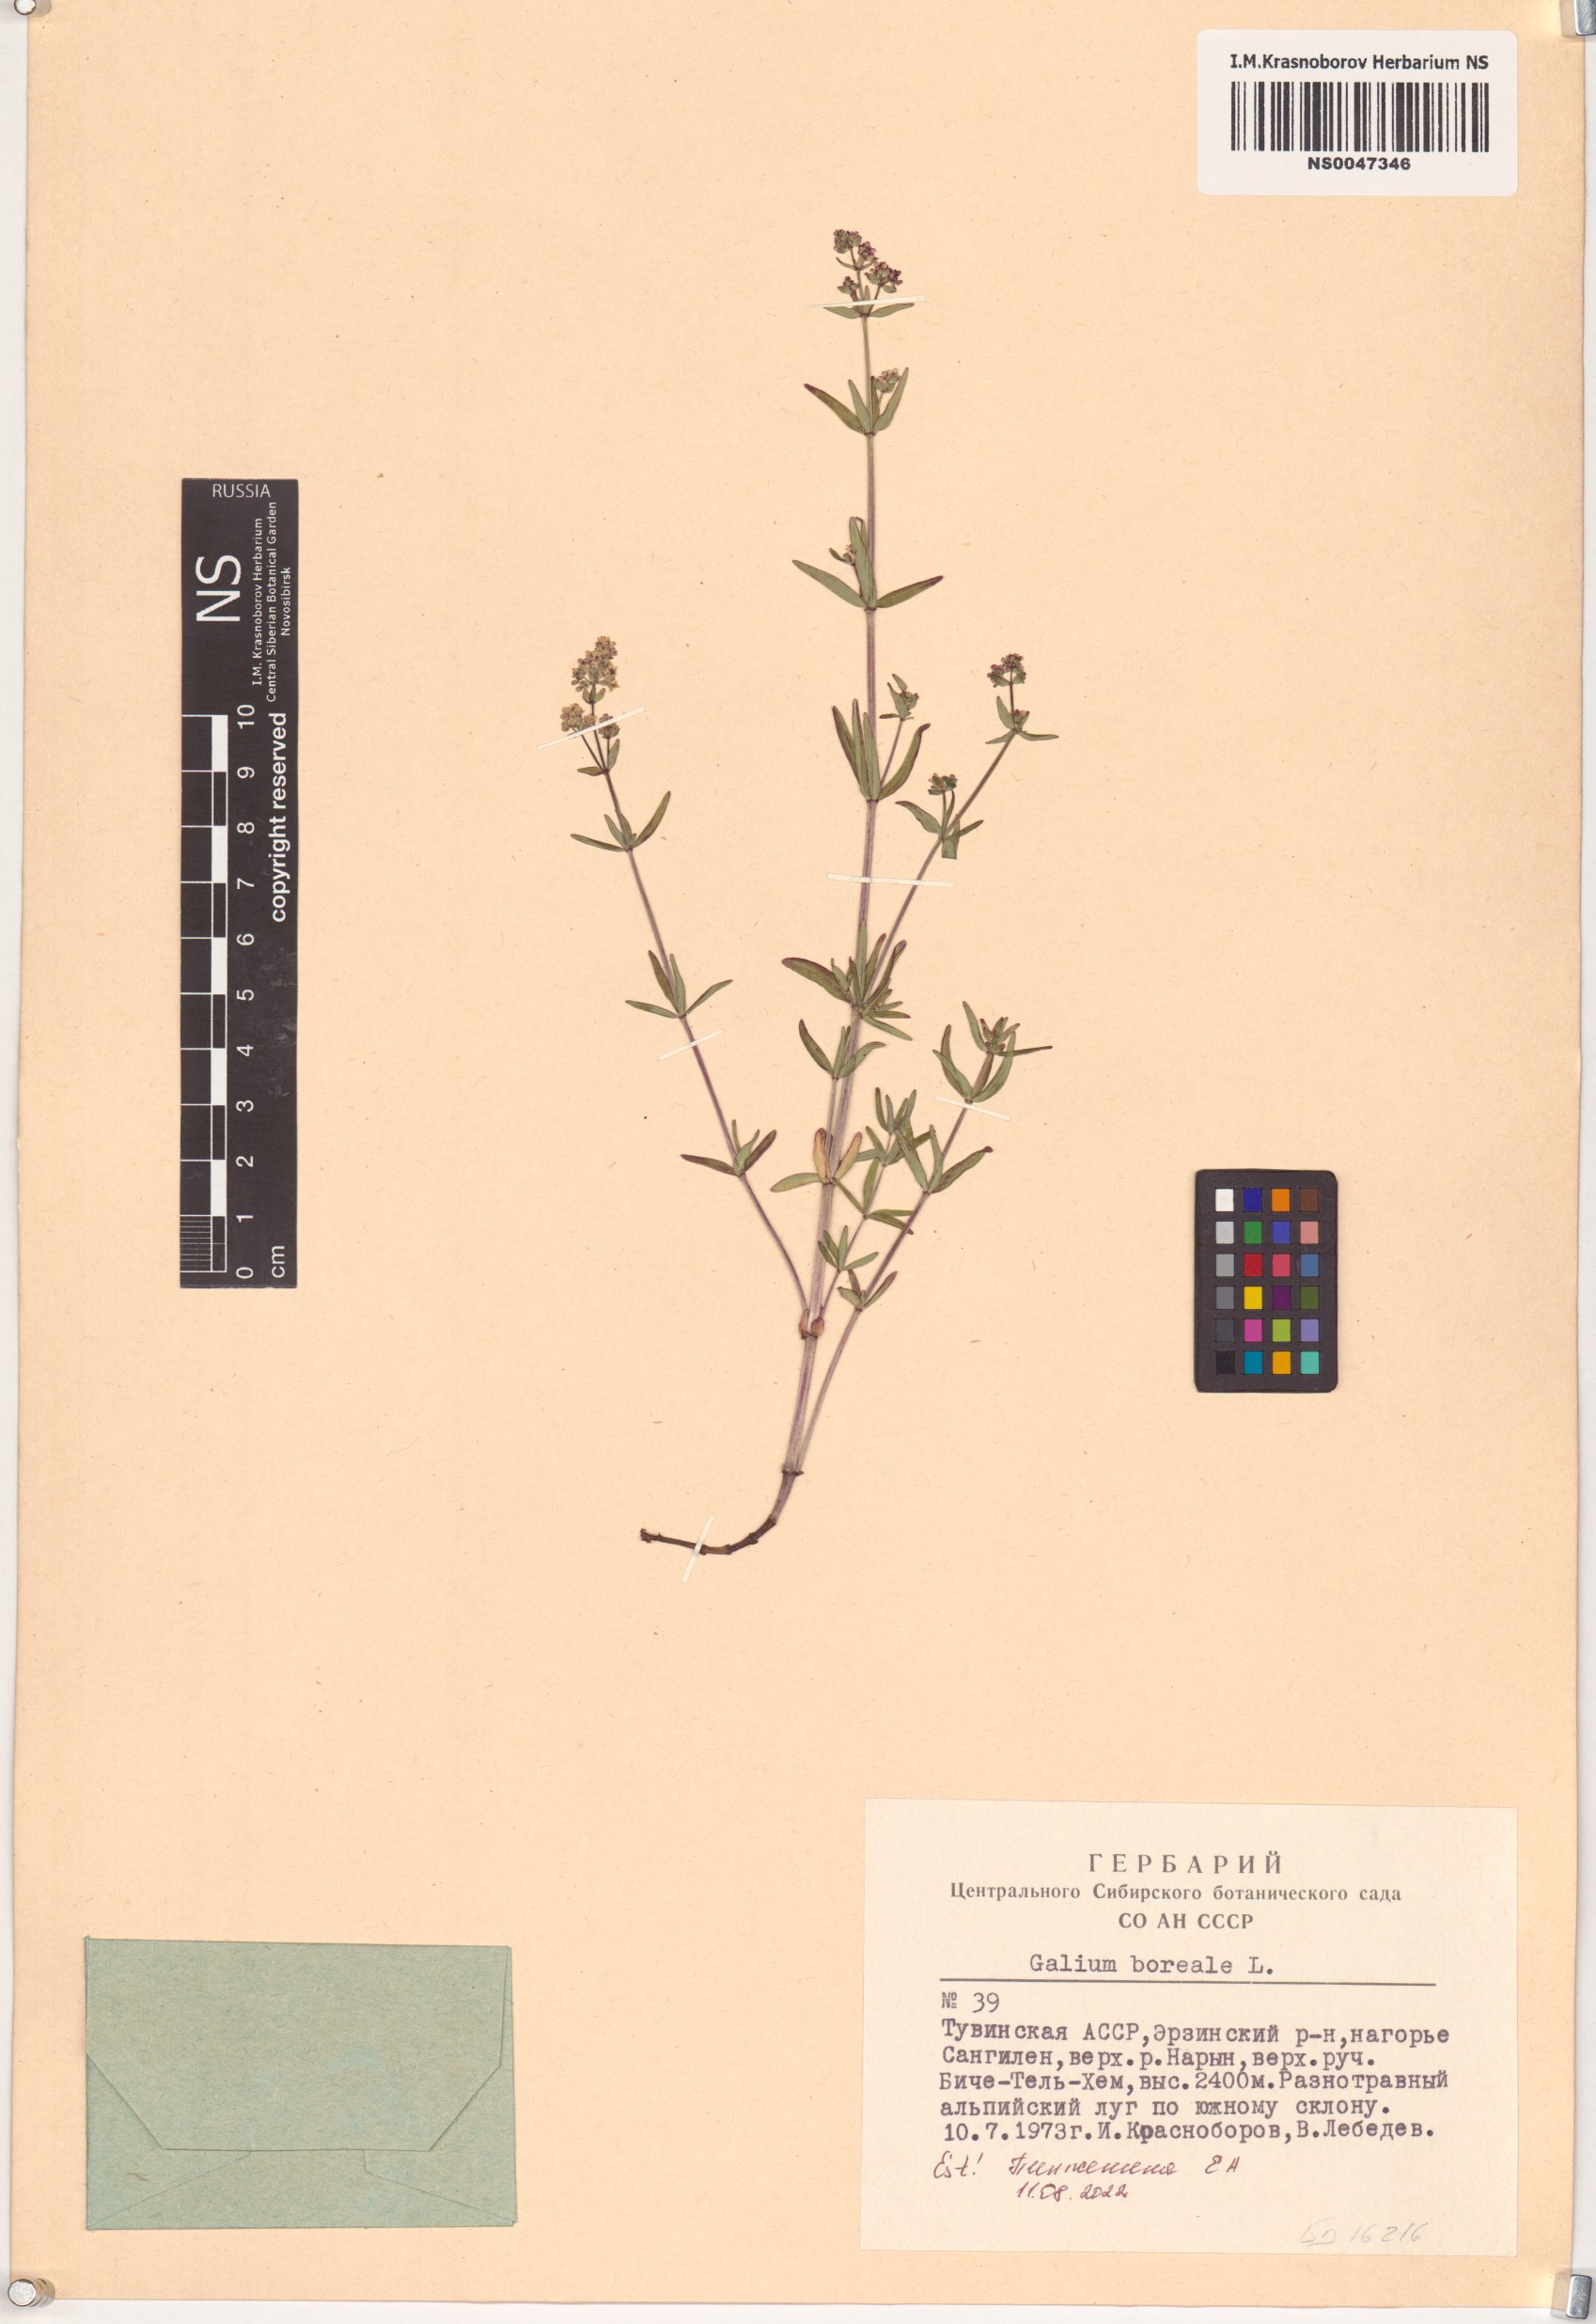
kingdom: Plantae
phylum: Tracheophyta
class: Magnoliopsida
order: Gentianales
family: Rubiaceae
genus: Galium
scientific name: Galium boreale
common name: Northern bedstraw
